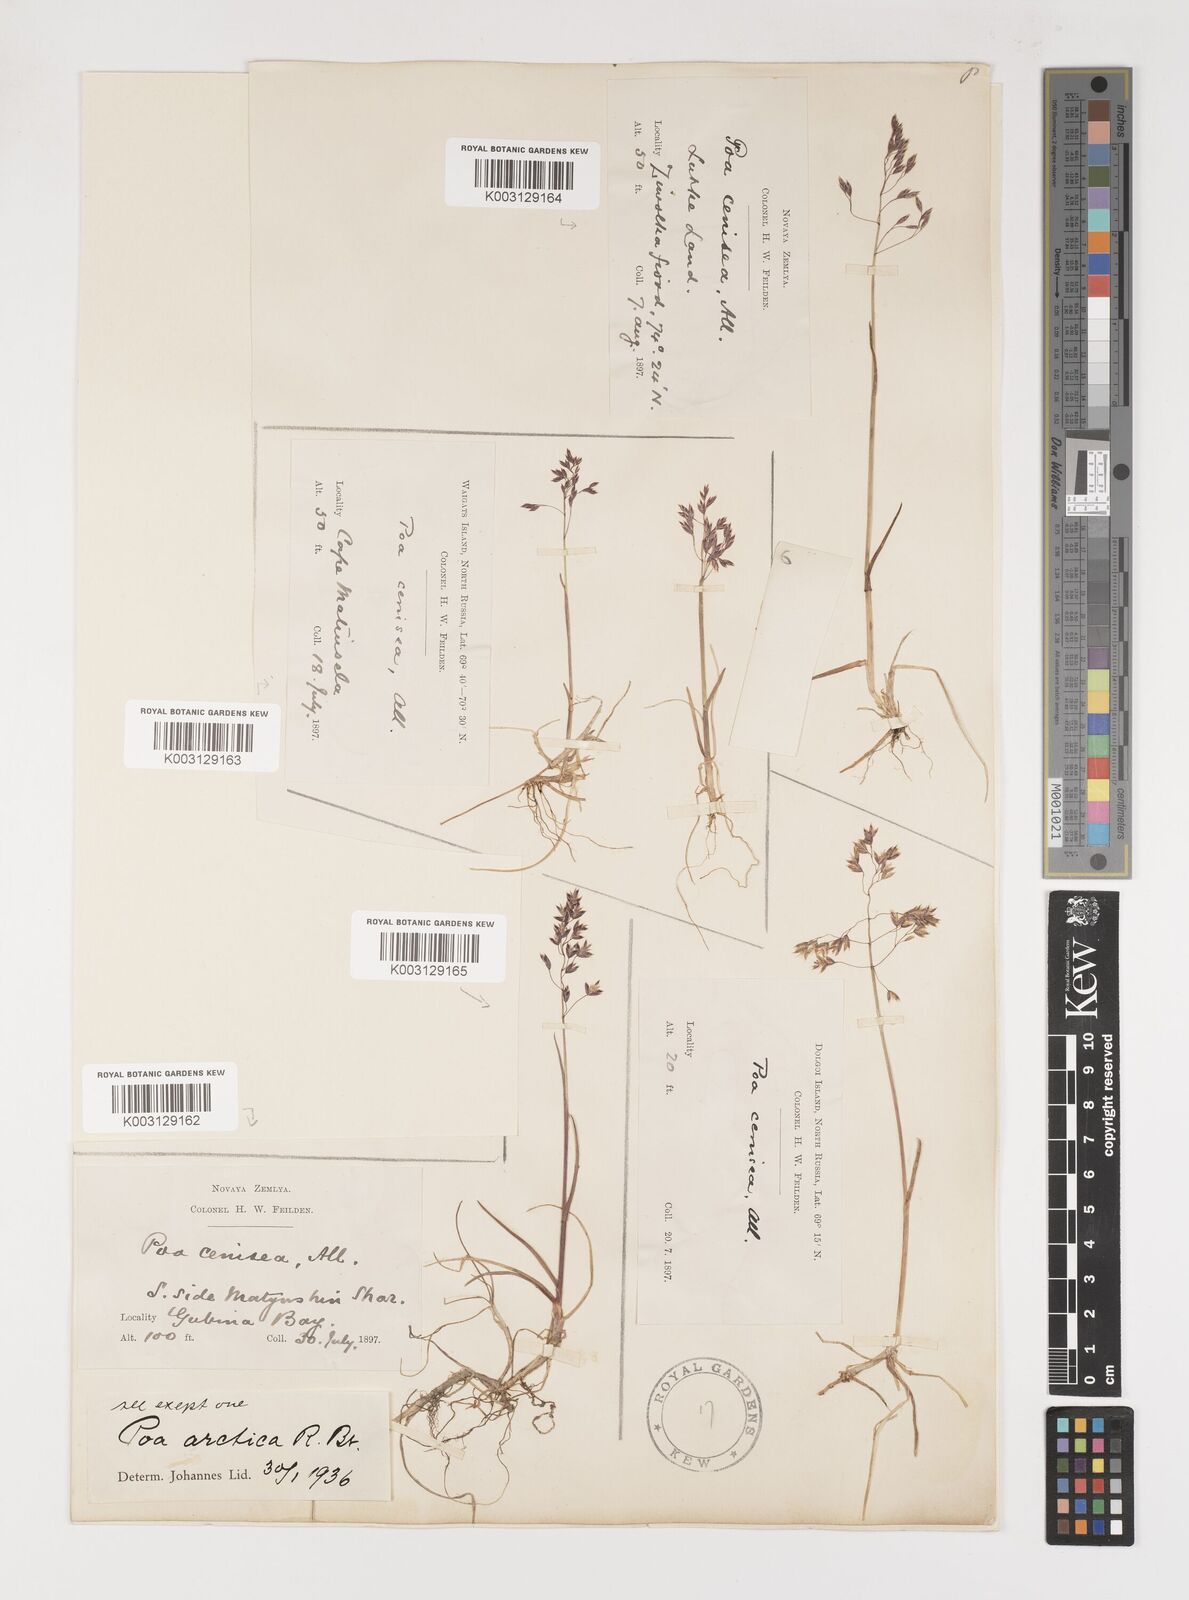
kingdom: Plantae
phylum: Tracheophyta
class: Liliopsida
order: Poales
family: Poaceae
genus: Poa
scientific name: Poa arctica
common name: Arctic bluegrass
